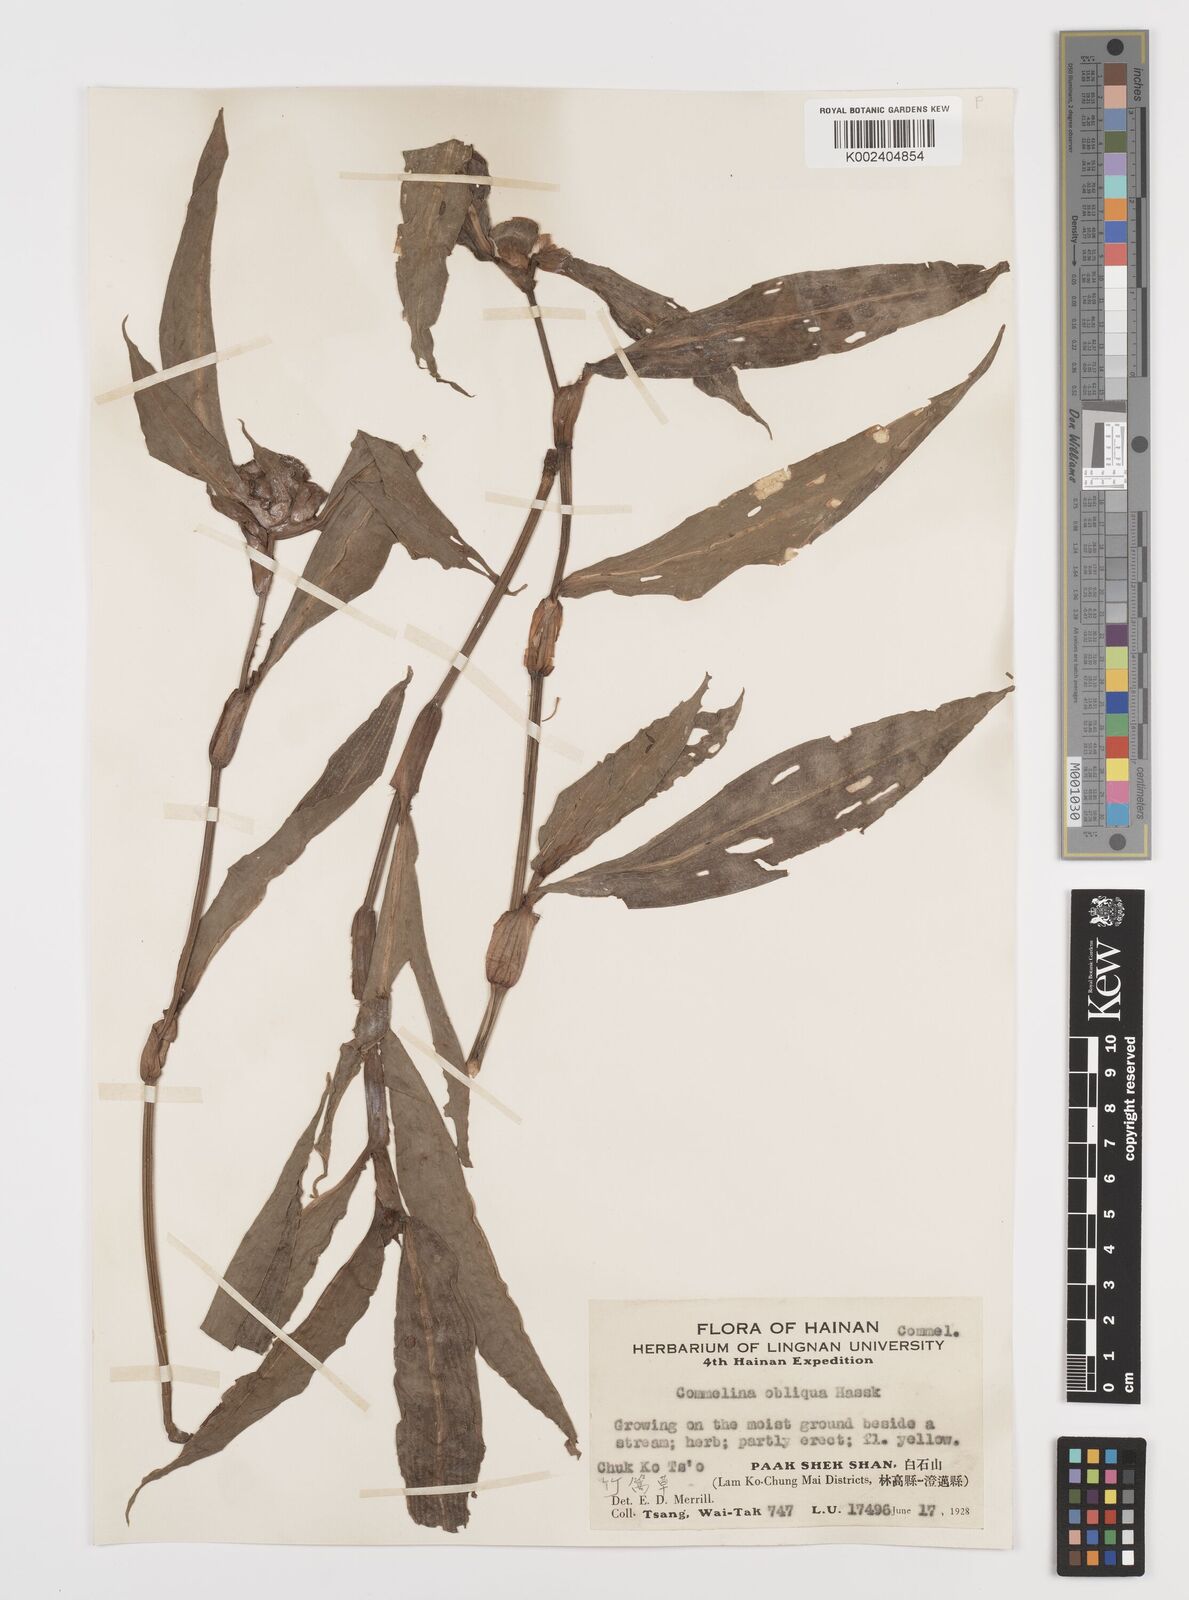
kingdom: Plantae
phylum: Tracheophyta
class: Liliopsida
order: Commelinales
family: Commelinaceae
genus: Commelina
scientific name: Commelina obliqua
